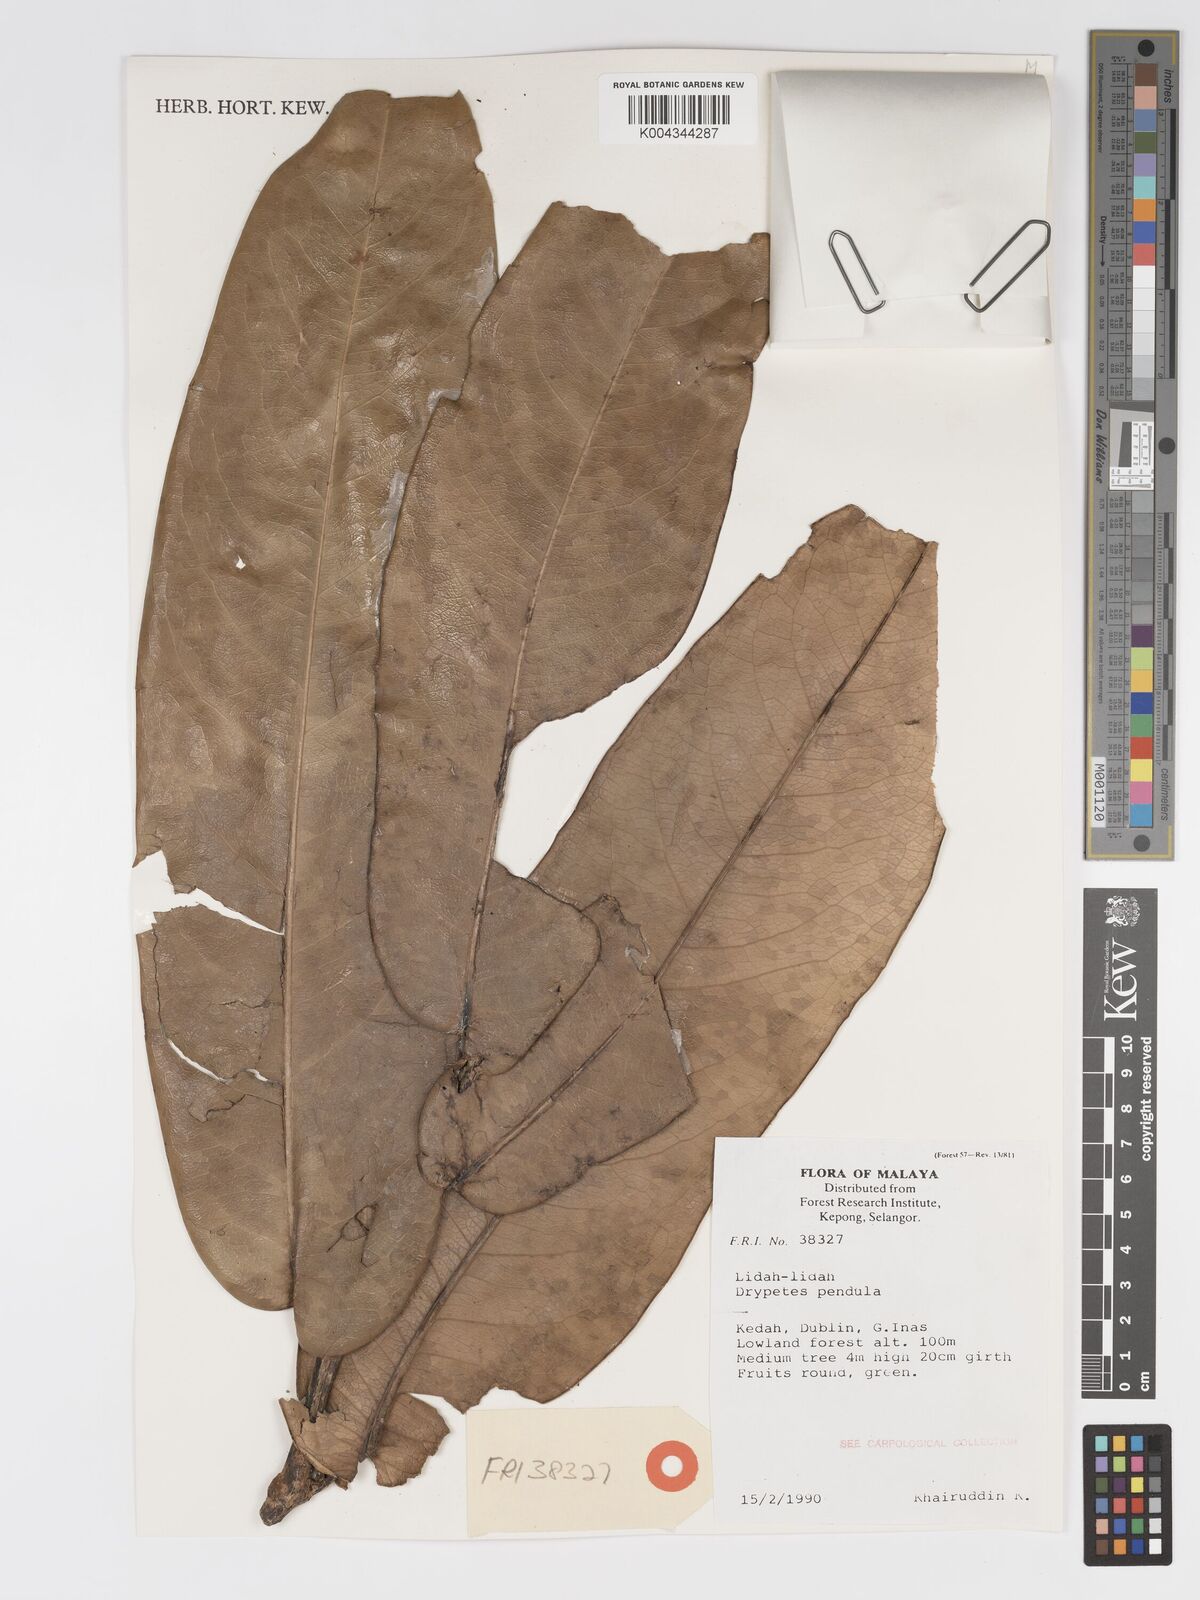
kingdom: Plantae
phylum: Tracheophyta
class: Magnoliopsida
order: Malpighiales
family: Putranjivaceae
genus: Drypetes
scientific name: Drypetes pendula
